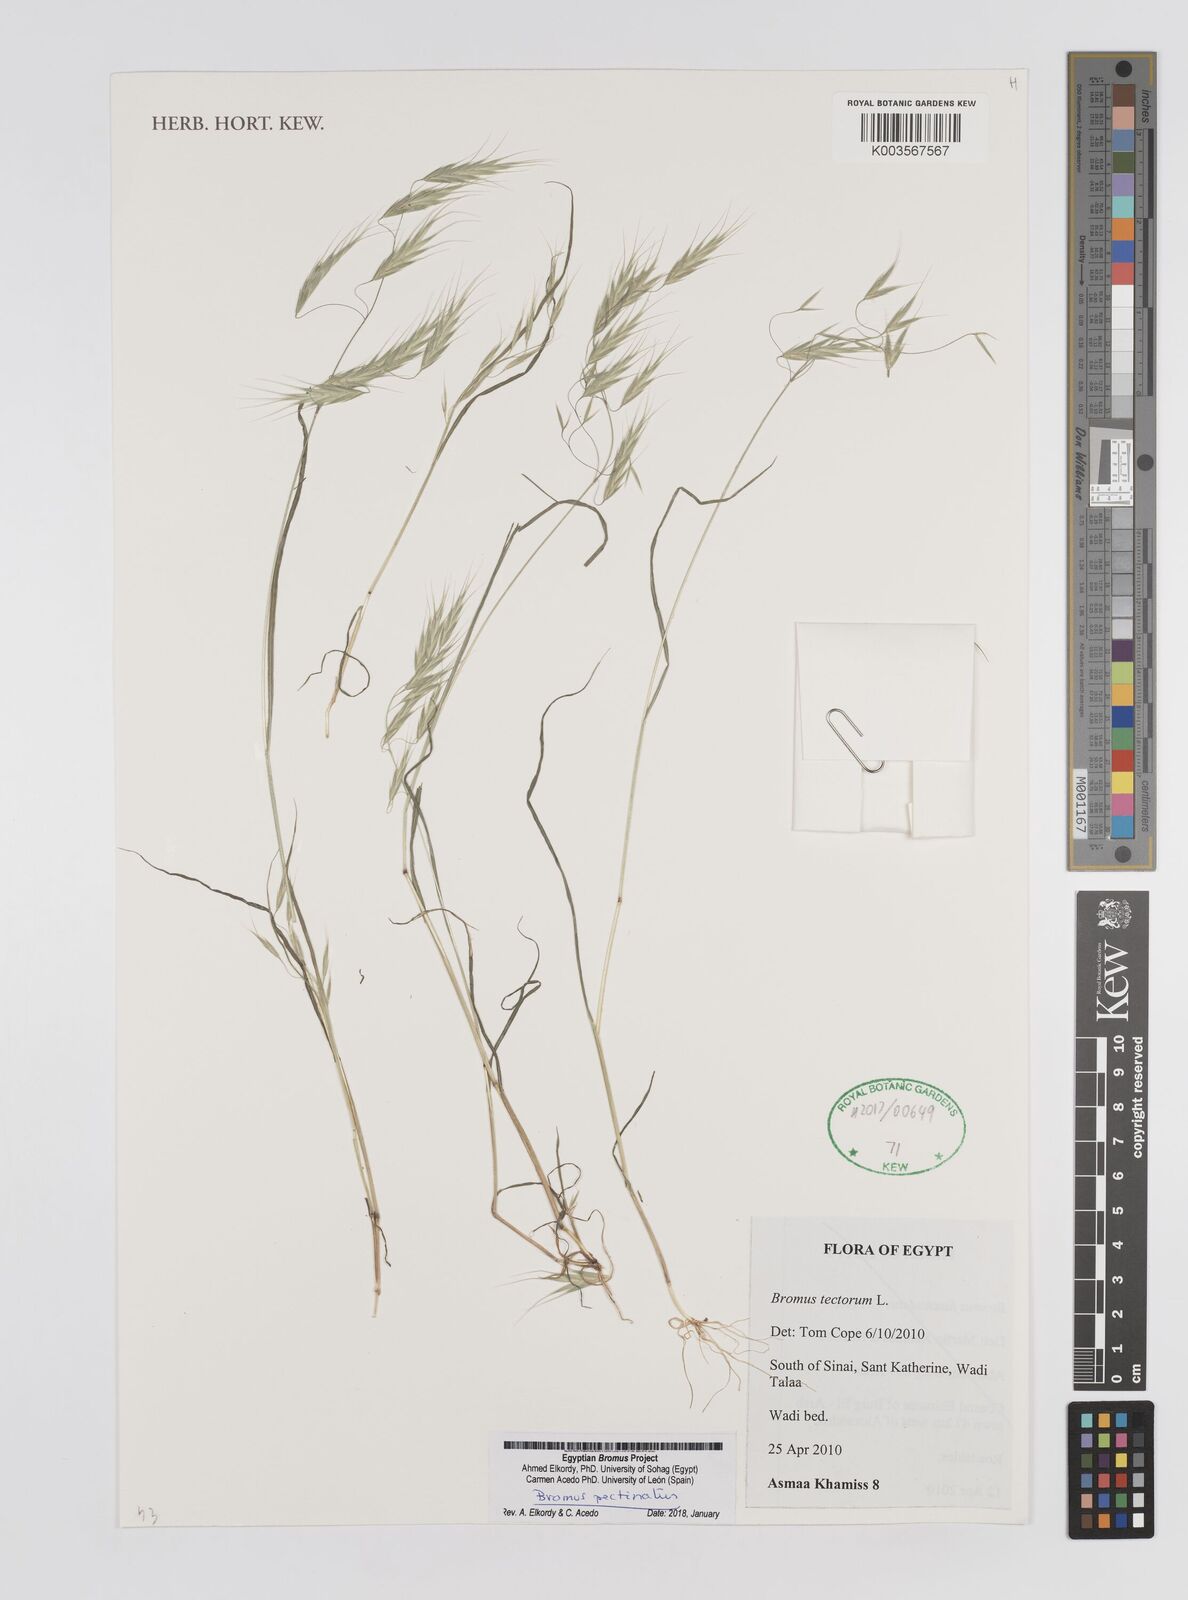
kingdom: Plantae
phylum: Tracheophyta
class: Liliopsida
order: Poales
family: Poaceae
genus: Bromus
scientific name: Bromus pectinatus
